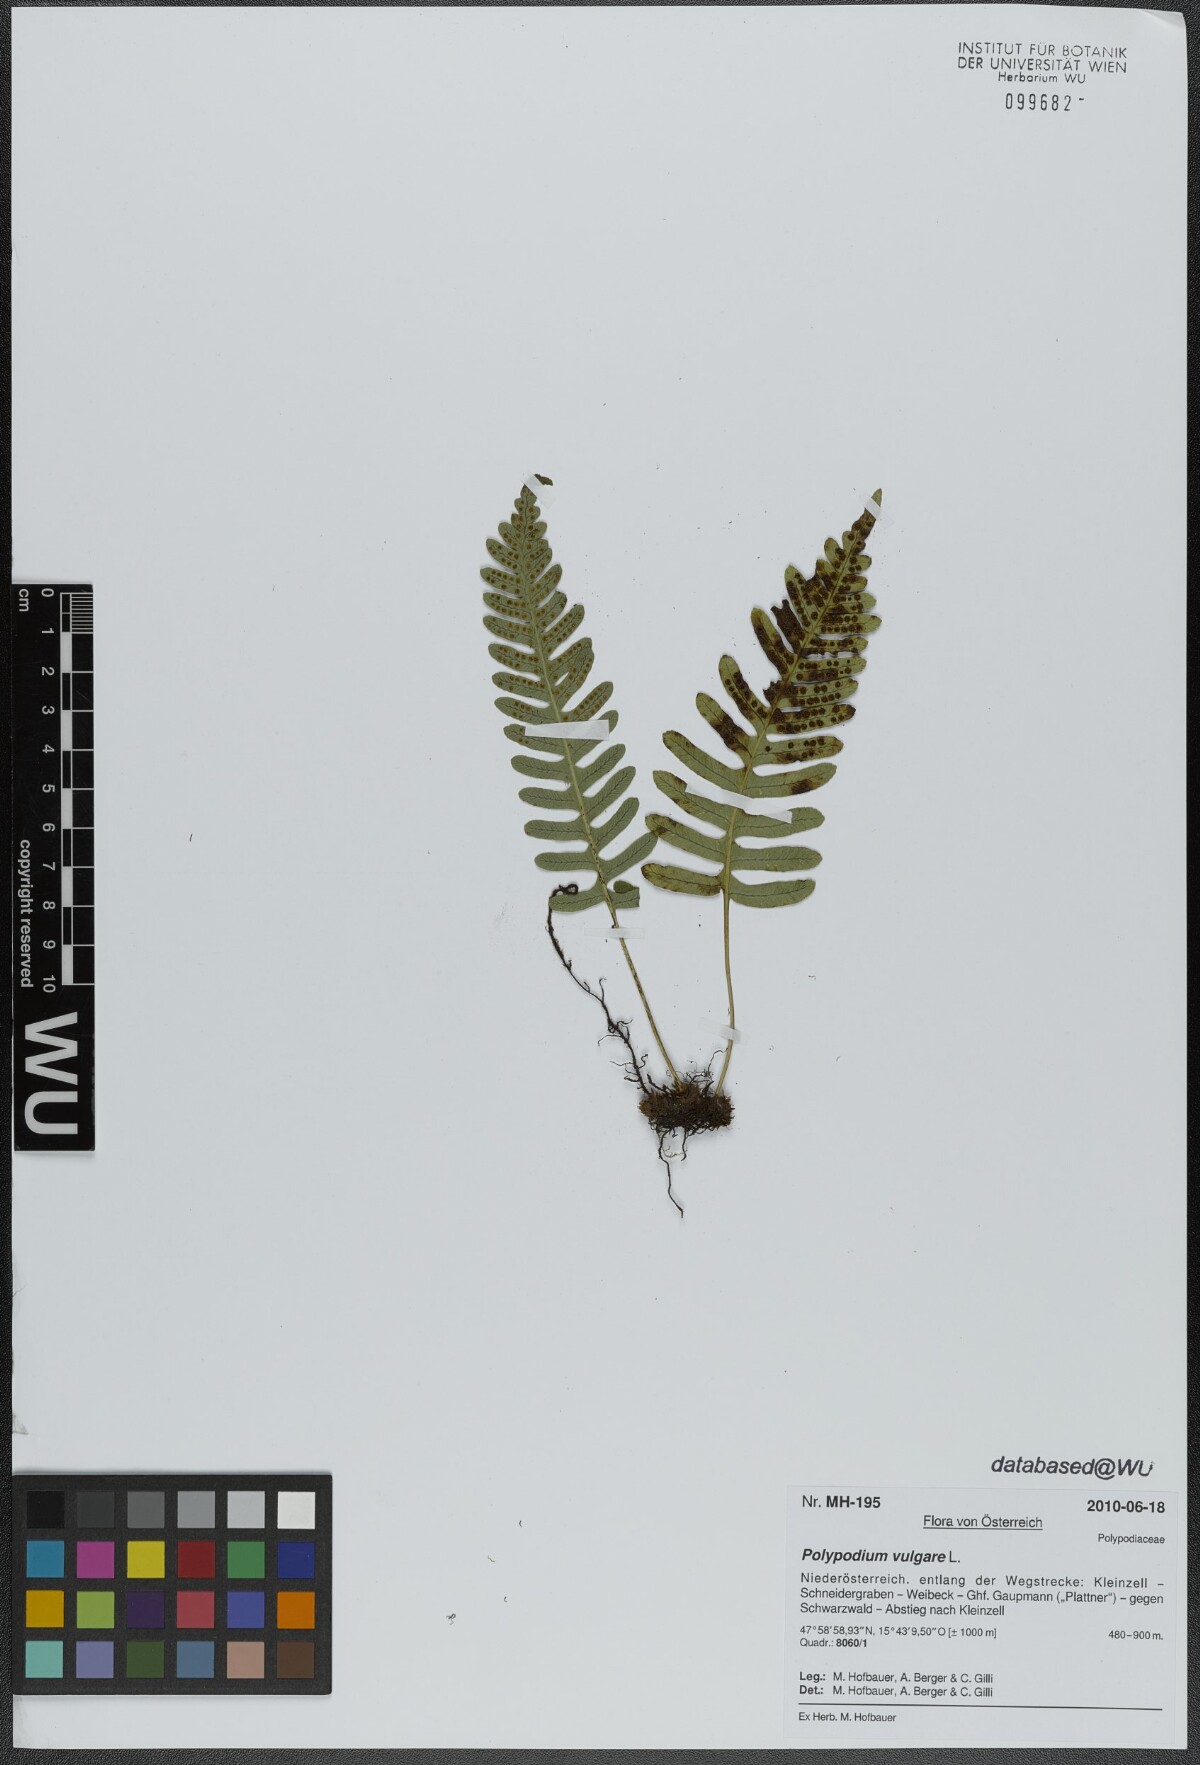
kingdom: Plantae
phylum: Tracheophyta
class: Polypodiopsida
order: Polypodiales
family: Polypodiaceae
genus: Polypodium
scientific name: Polypodium vulgare
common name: Common polypody
